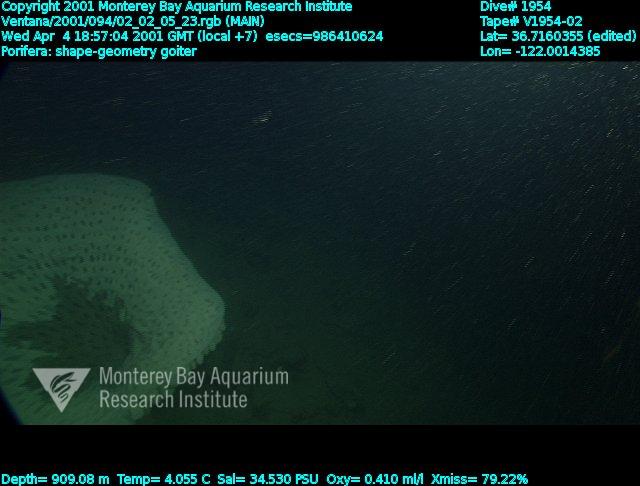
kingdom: Animalia
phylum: Porifera
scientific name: Porifera
